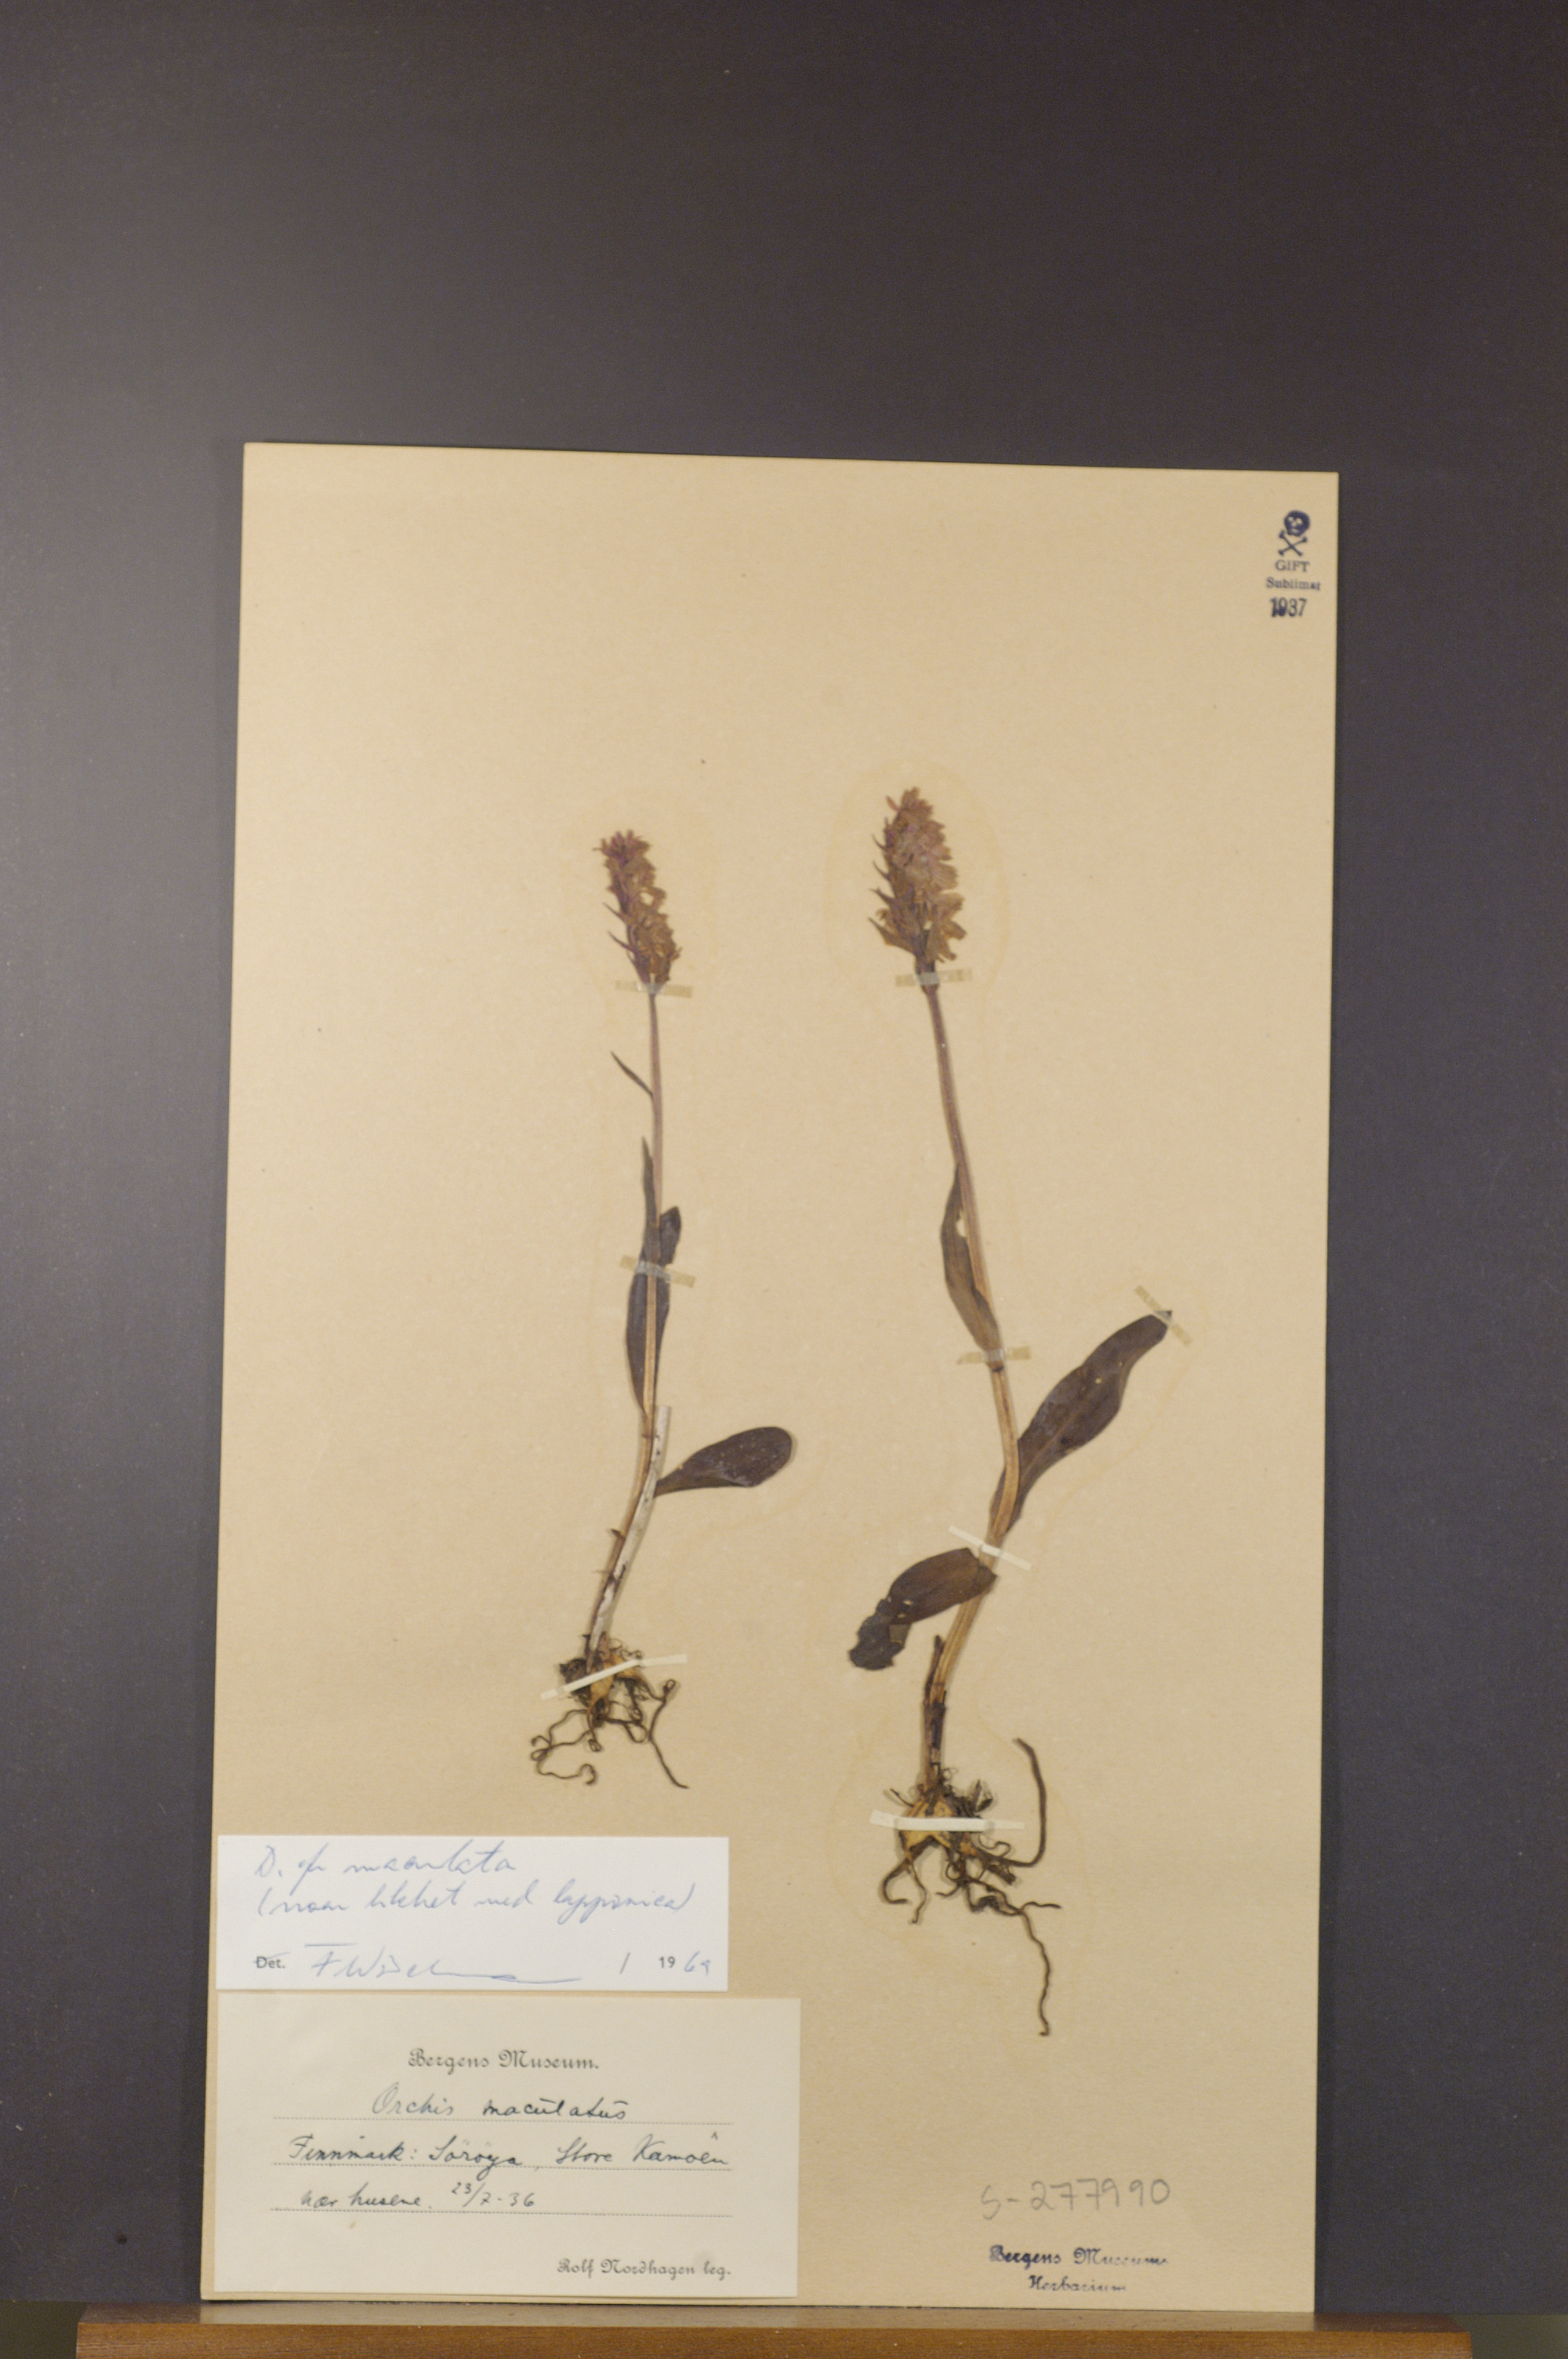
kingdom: Plantae
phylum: Tracheophyta
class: Liliopsida
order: Asparagales
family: Orchidaceae
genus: Dactylorhiza
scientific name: Dactylorhiza maculata
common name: Heath spotted-orchid
